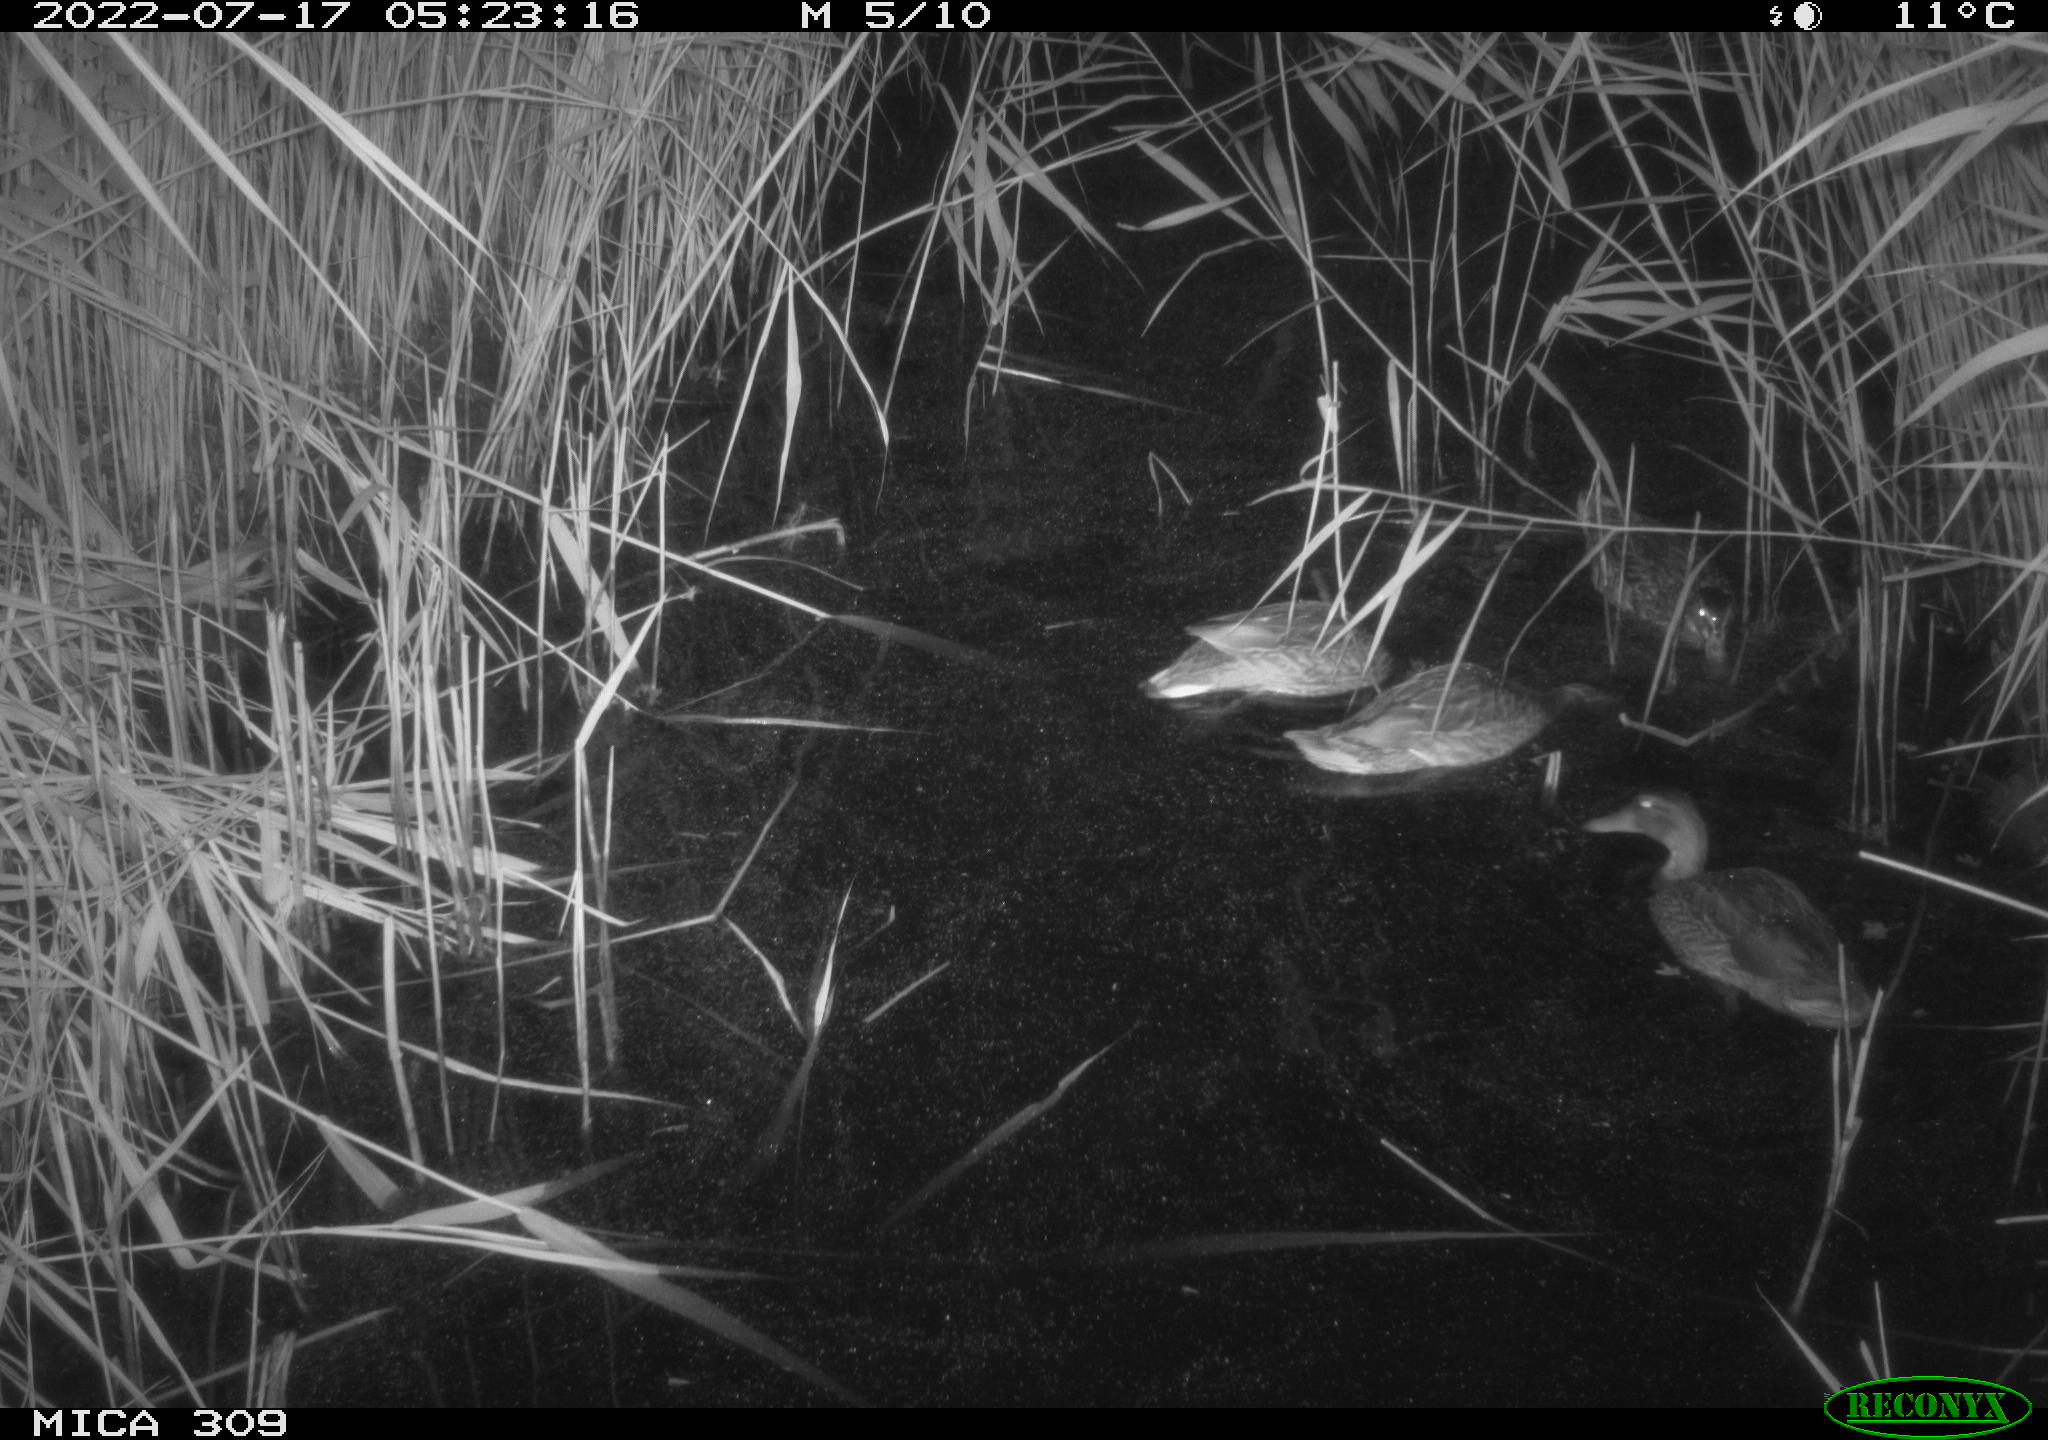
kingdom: Animalia
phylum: Chordata
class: Aves
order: Anseriformes
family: Anatidae
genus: Anas
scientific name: Anas platyrhynchos
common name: Mallard
